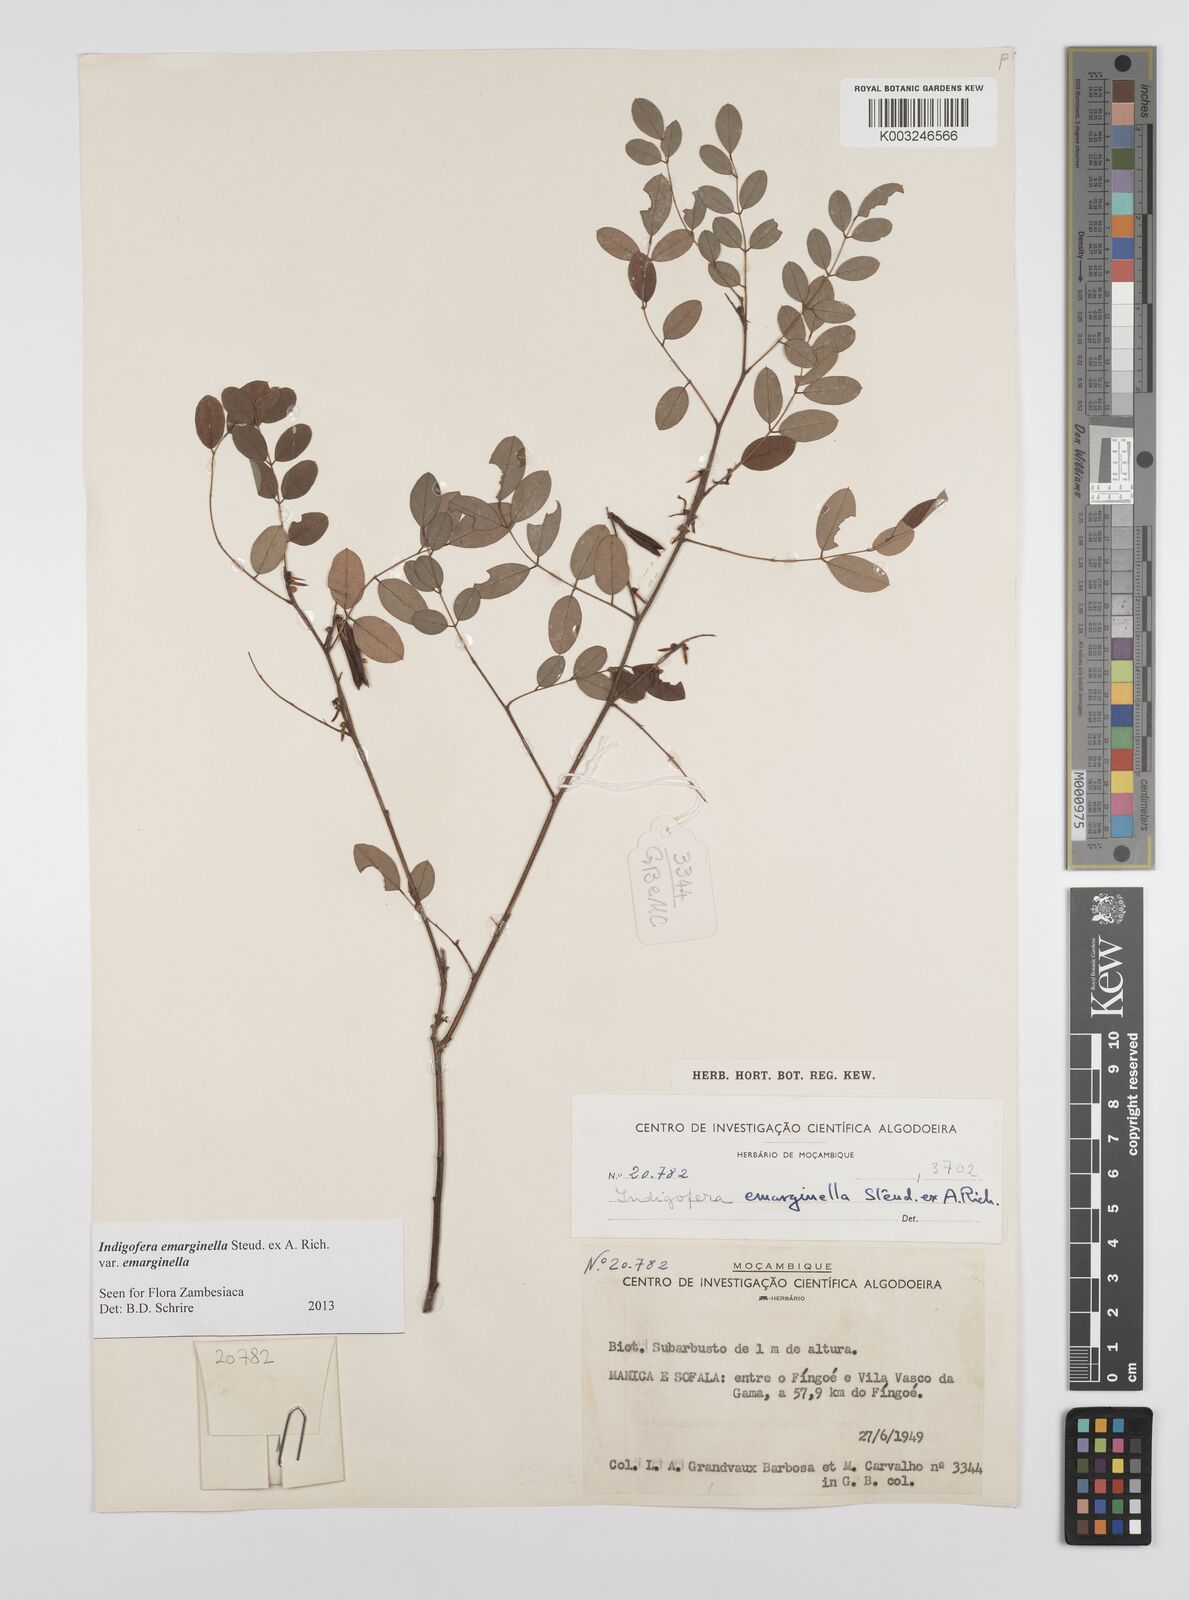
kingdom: Plantae
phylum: Tracheophyta
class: Magnoliopsida
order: Fabales
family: Fabaceae
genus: Indigofera
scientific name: Indigofera emarginella
